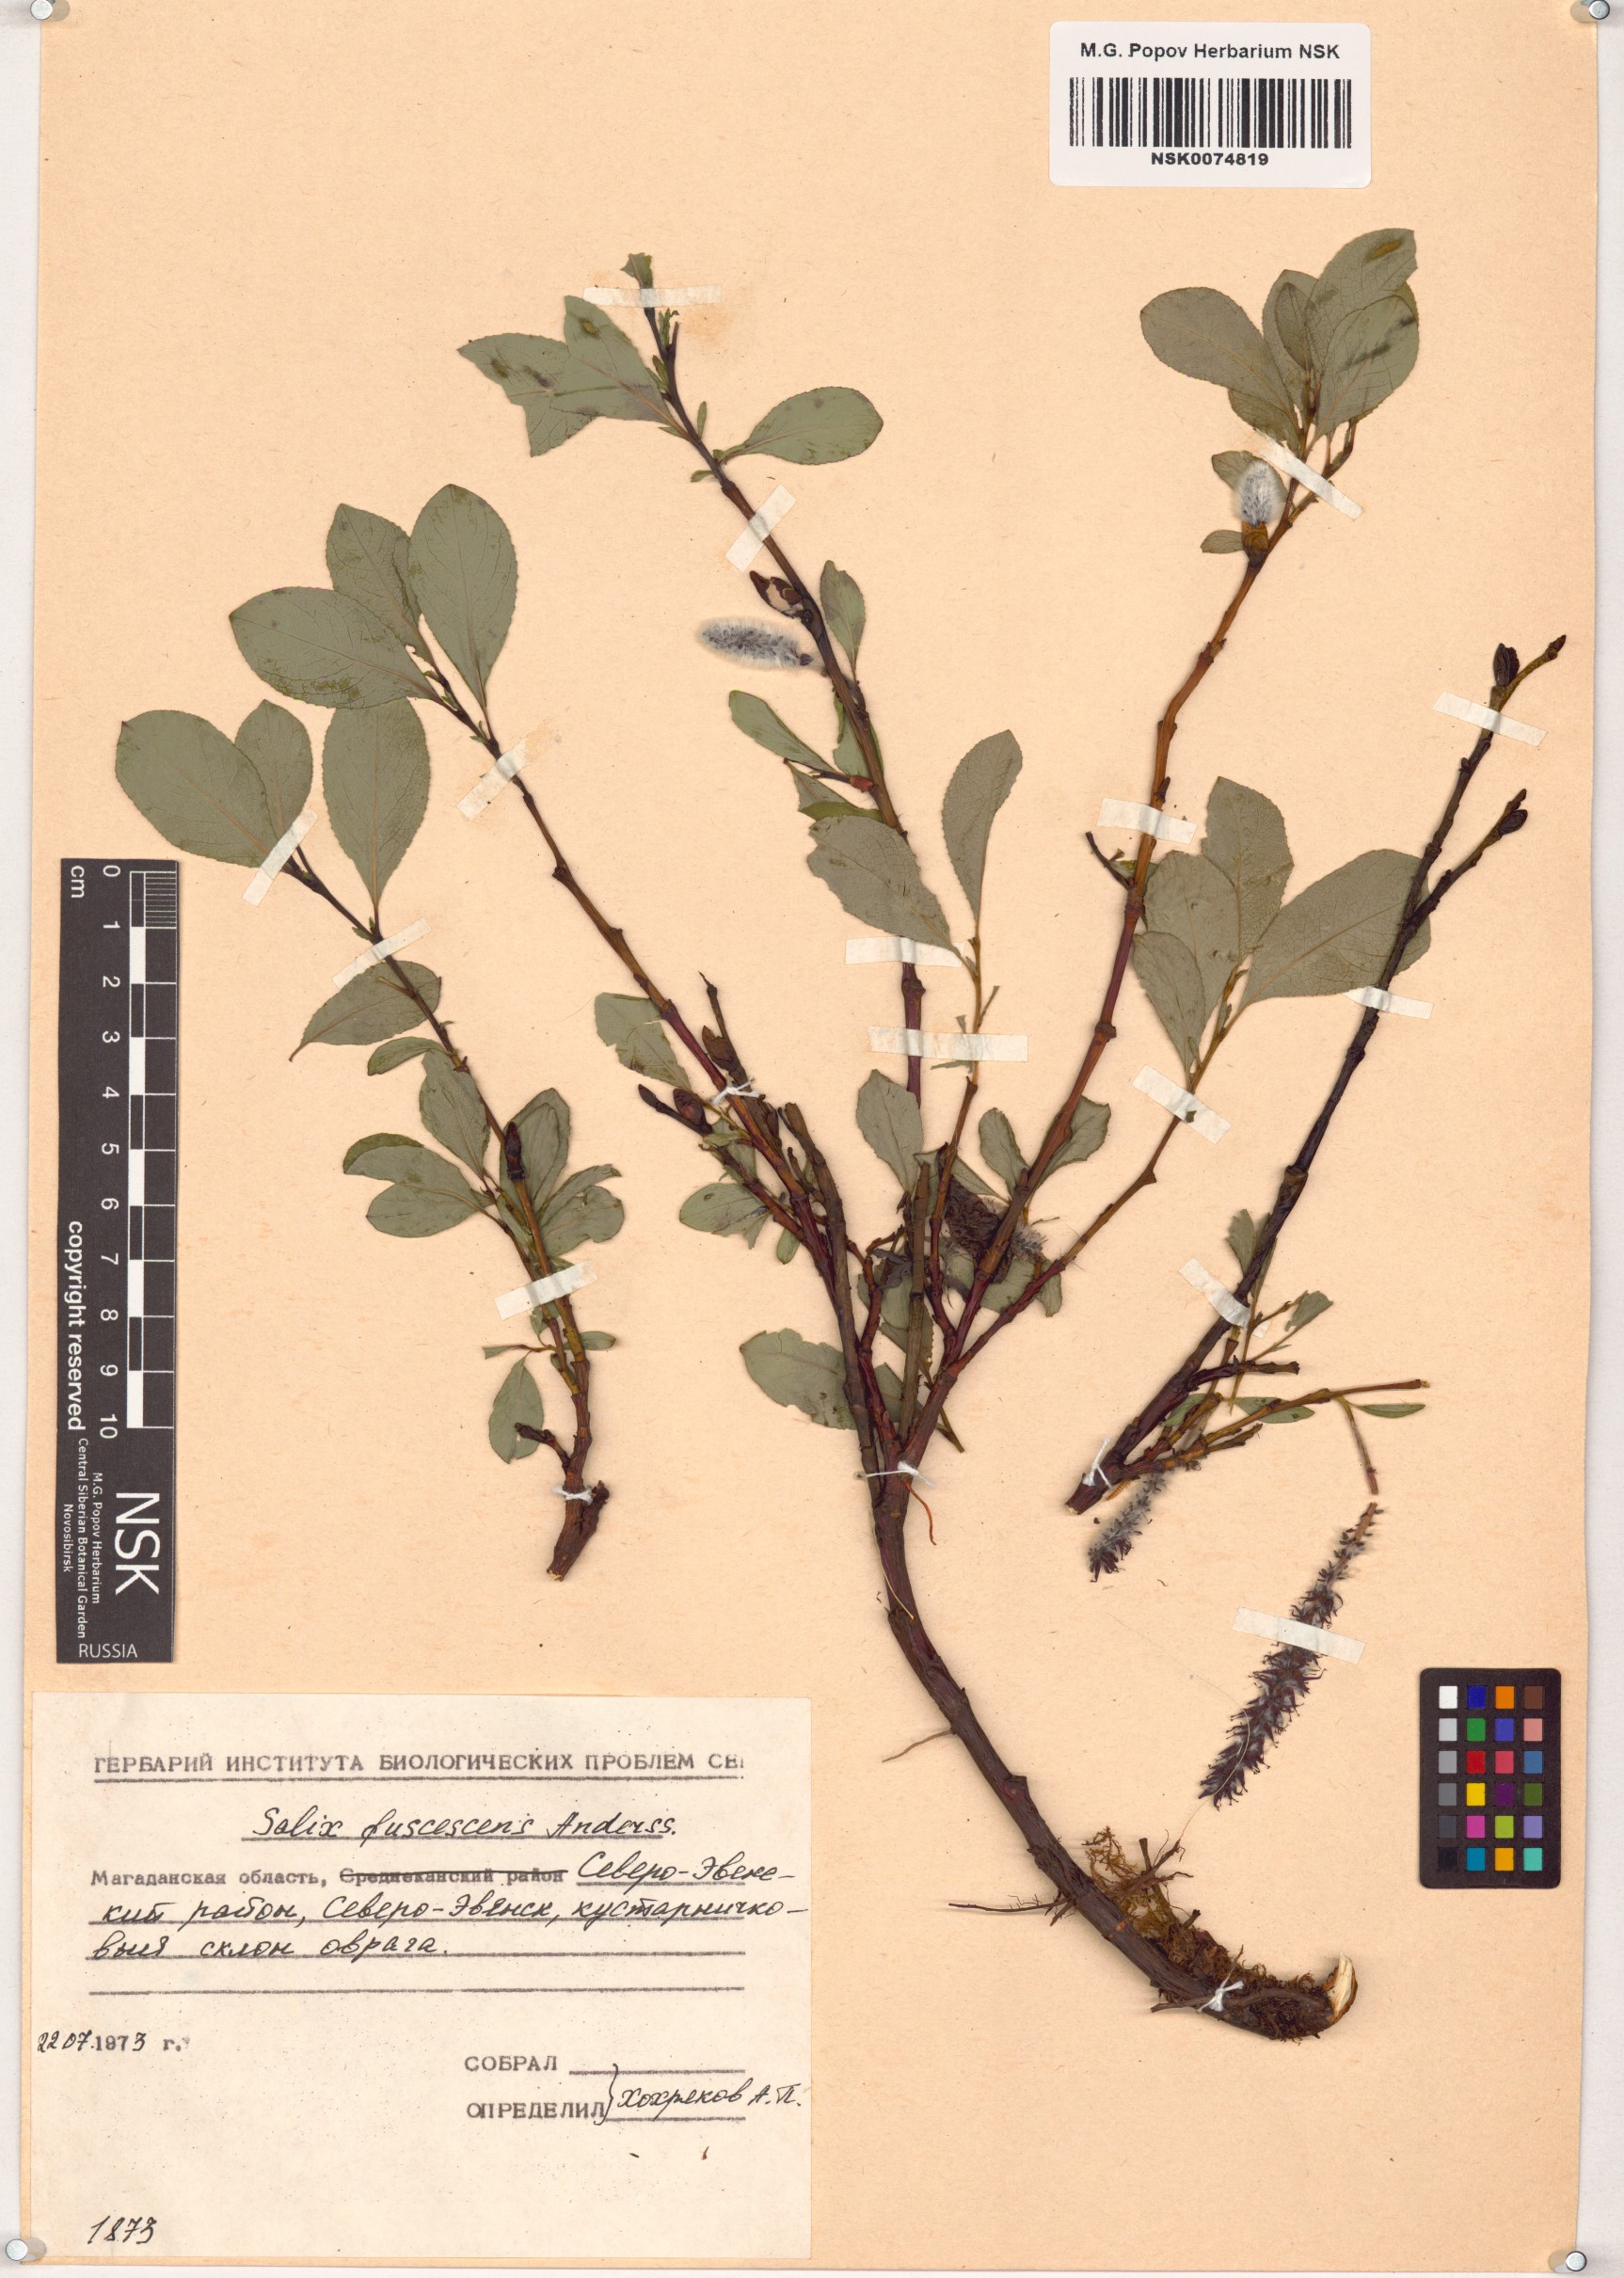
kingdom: Plantae
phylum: Tracheophyta
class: Magnoliopsida
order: Malpighiales
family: Salicaceae
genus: Salix
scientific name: Salix fuscescens
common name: Brownish willow
